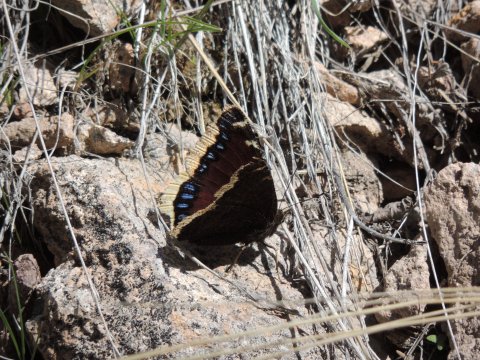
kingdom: Animalia
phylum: Arthropoda
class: Insecta
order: Lepidoptera
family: Nymphalidae
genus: Nymphalis
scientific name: Nymphalis antiopa
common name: Mourning Cloak
